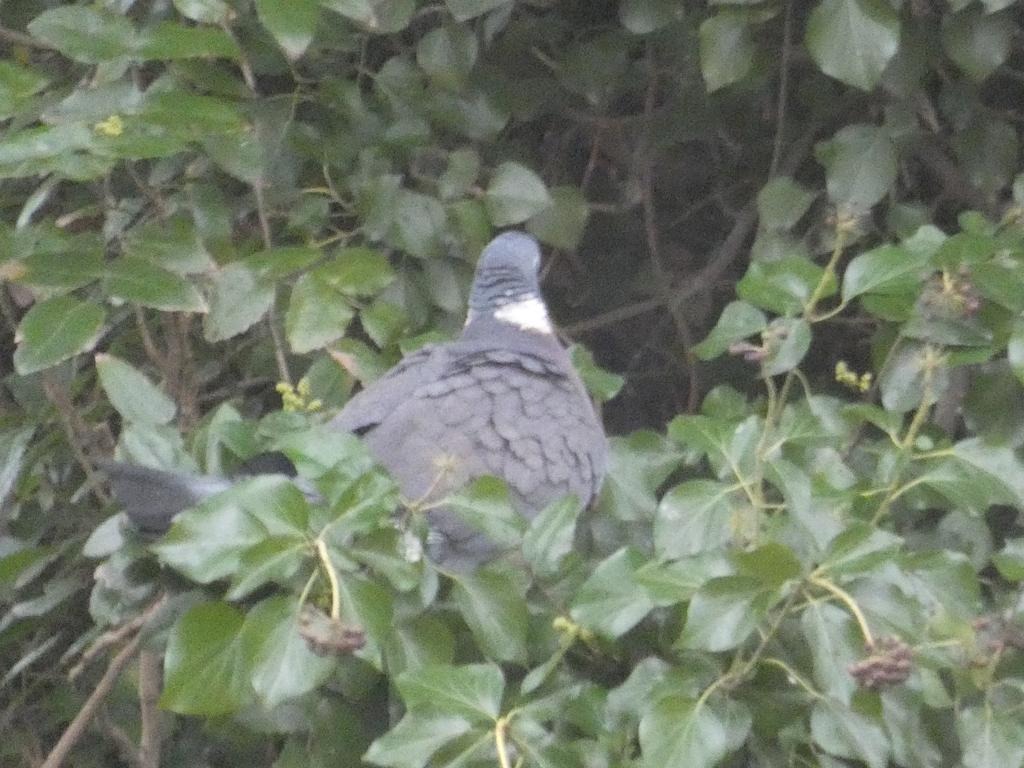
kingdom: Animalia
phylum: Chordata
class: Aves
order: Columbiformes
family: Columbidae
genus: Columba
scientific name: Columba palumbus
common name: Ringdue
